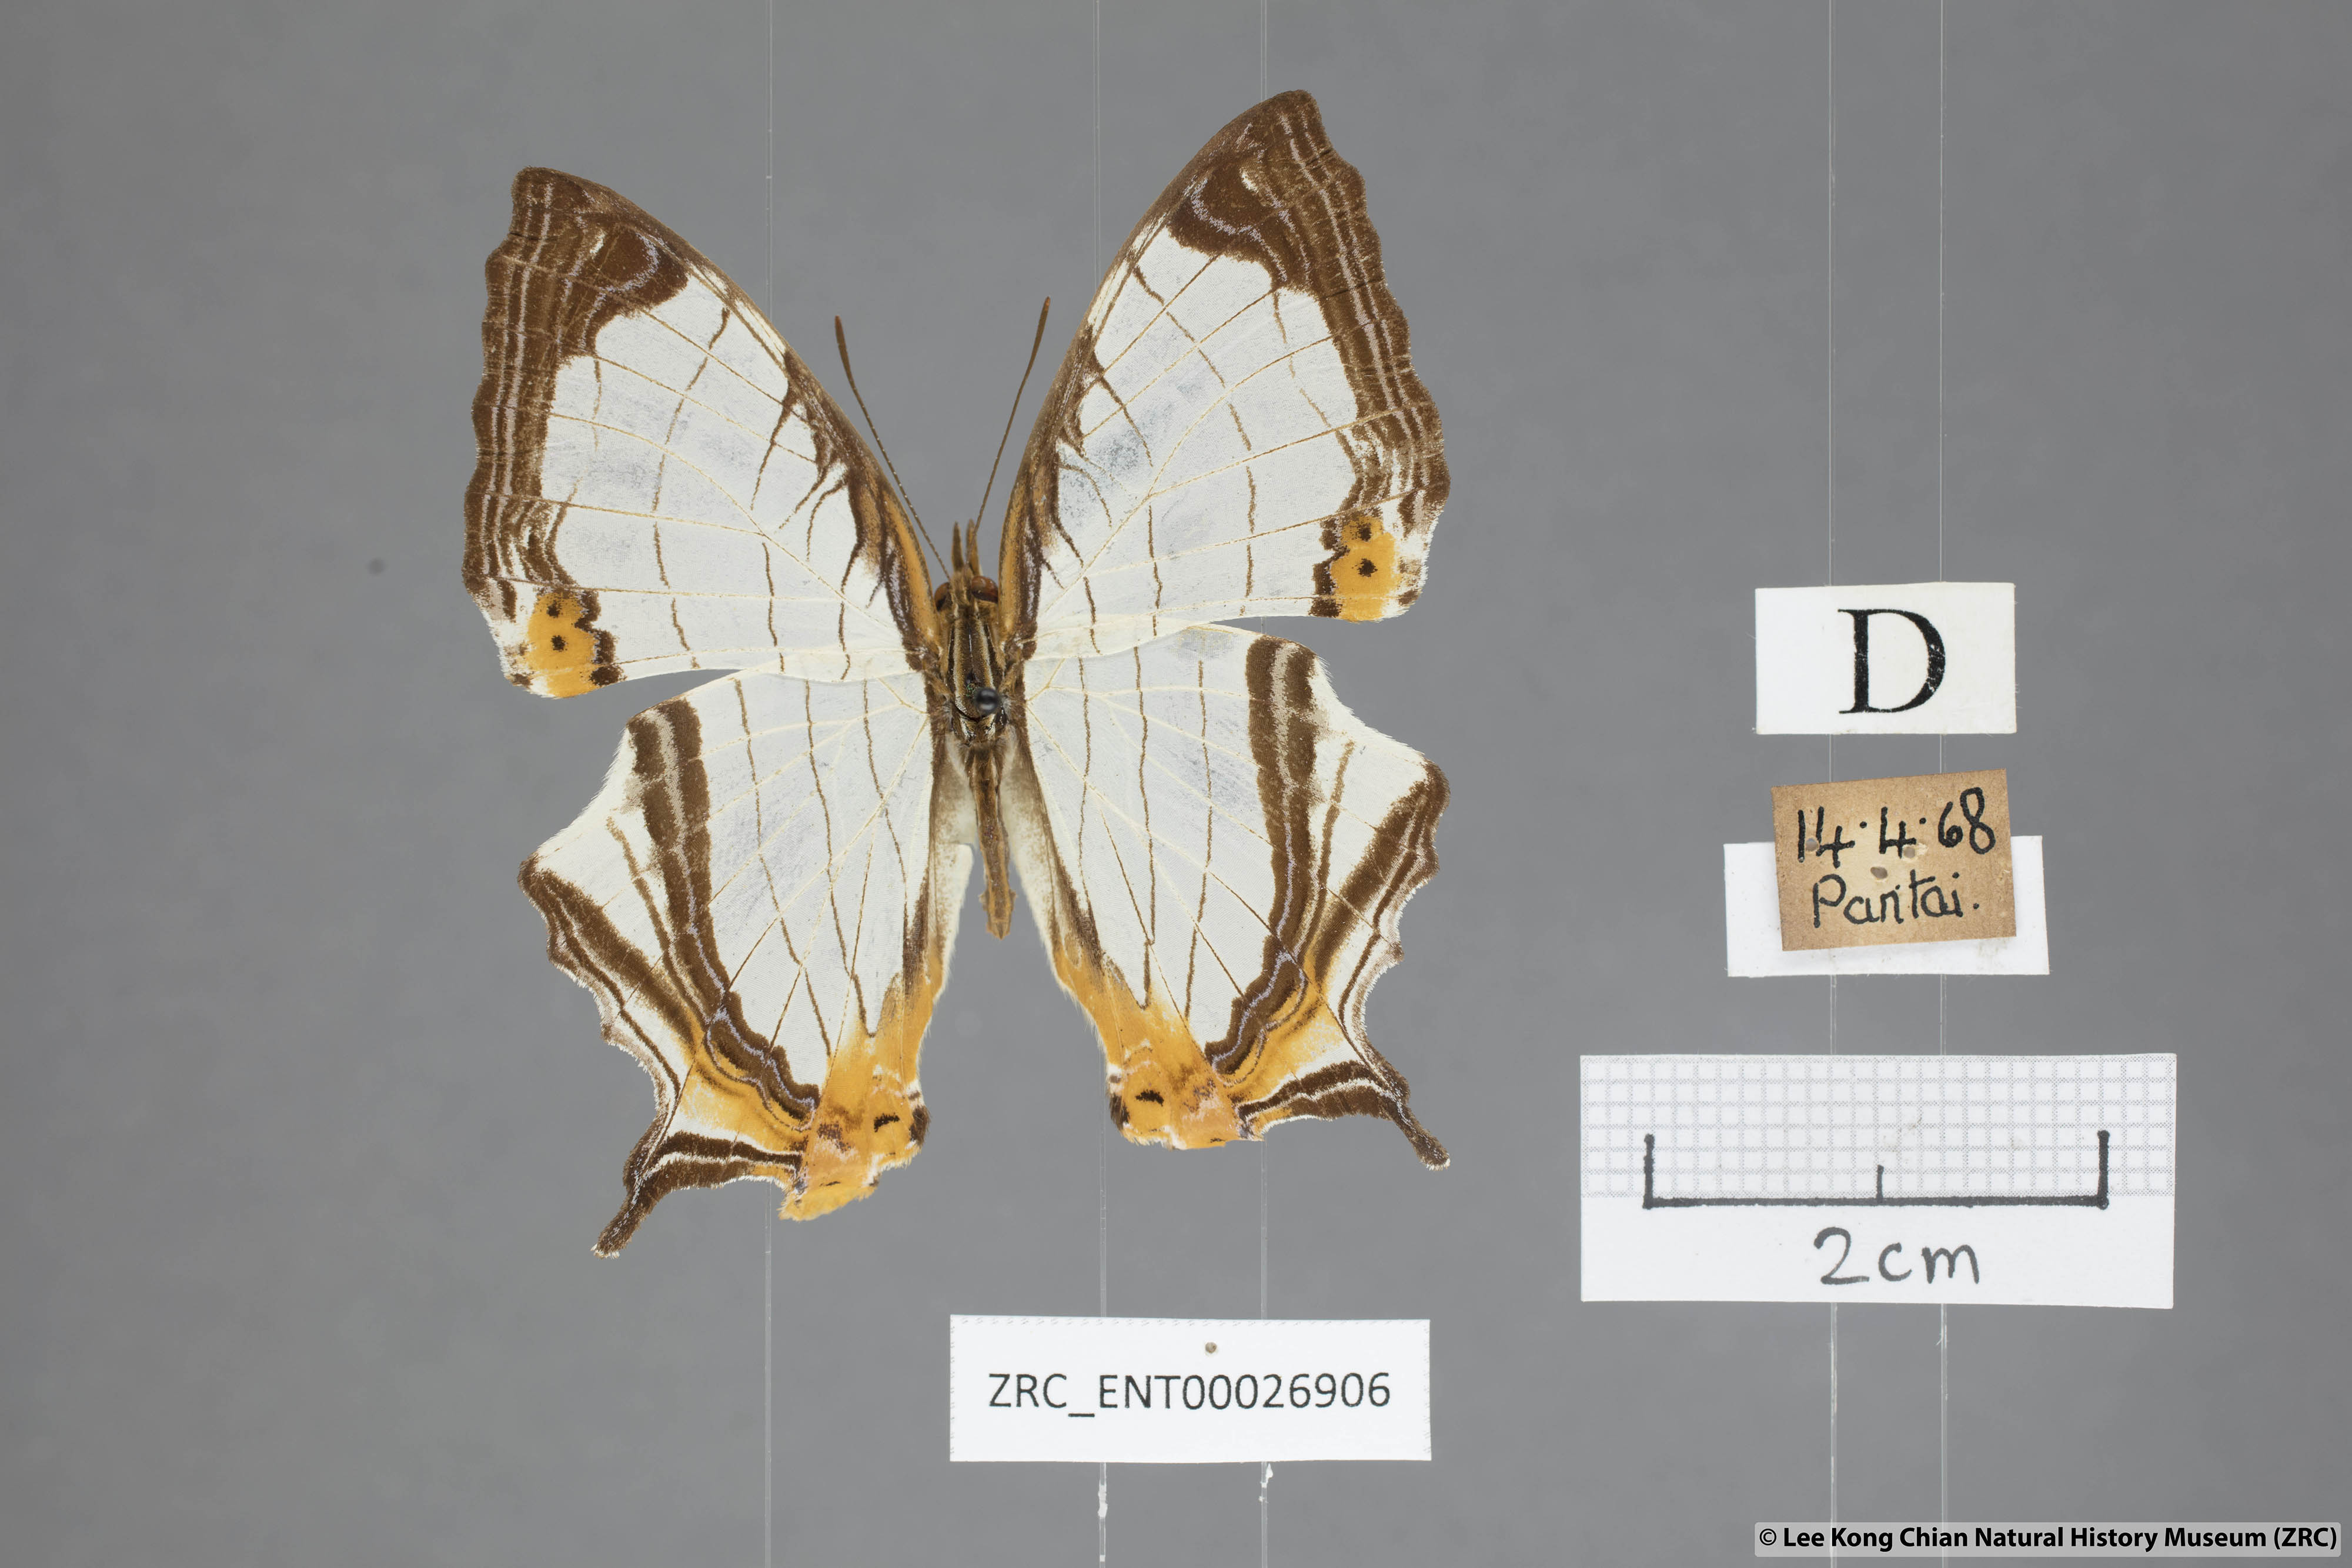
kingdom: Animalia
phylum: Arthropoda
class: Insecta
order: Lepidoptera
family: Nymphalidae
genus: Cyrestis
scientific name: Cyrestis nivea
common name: Straight line mapwing
